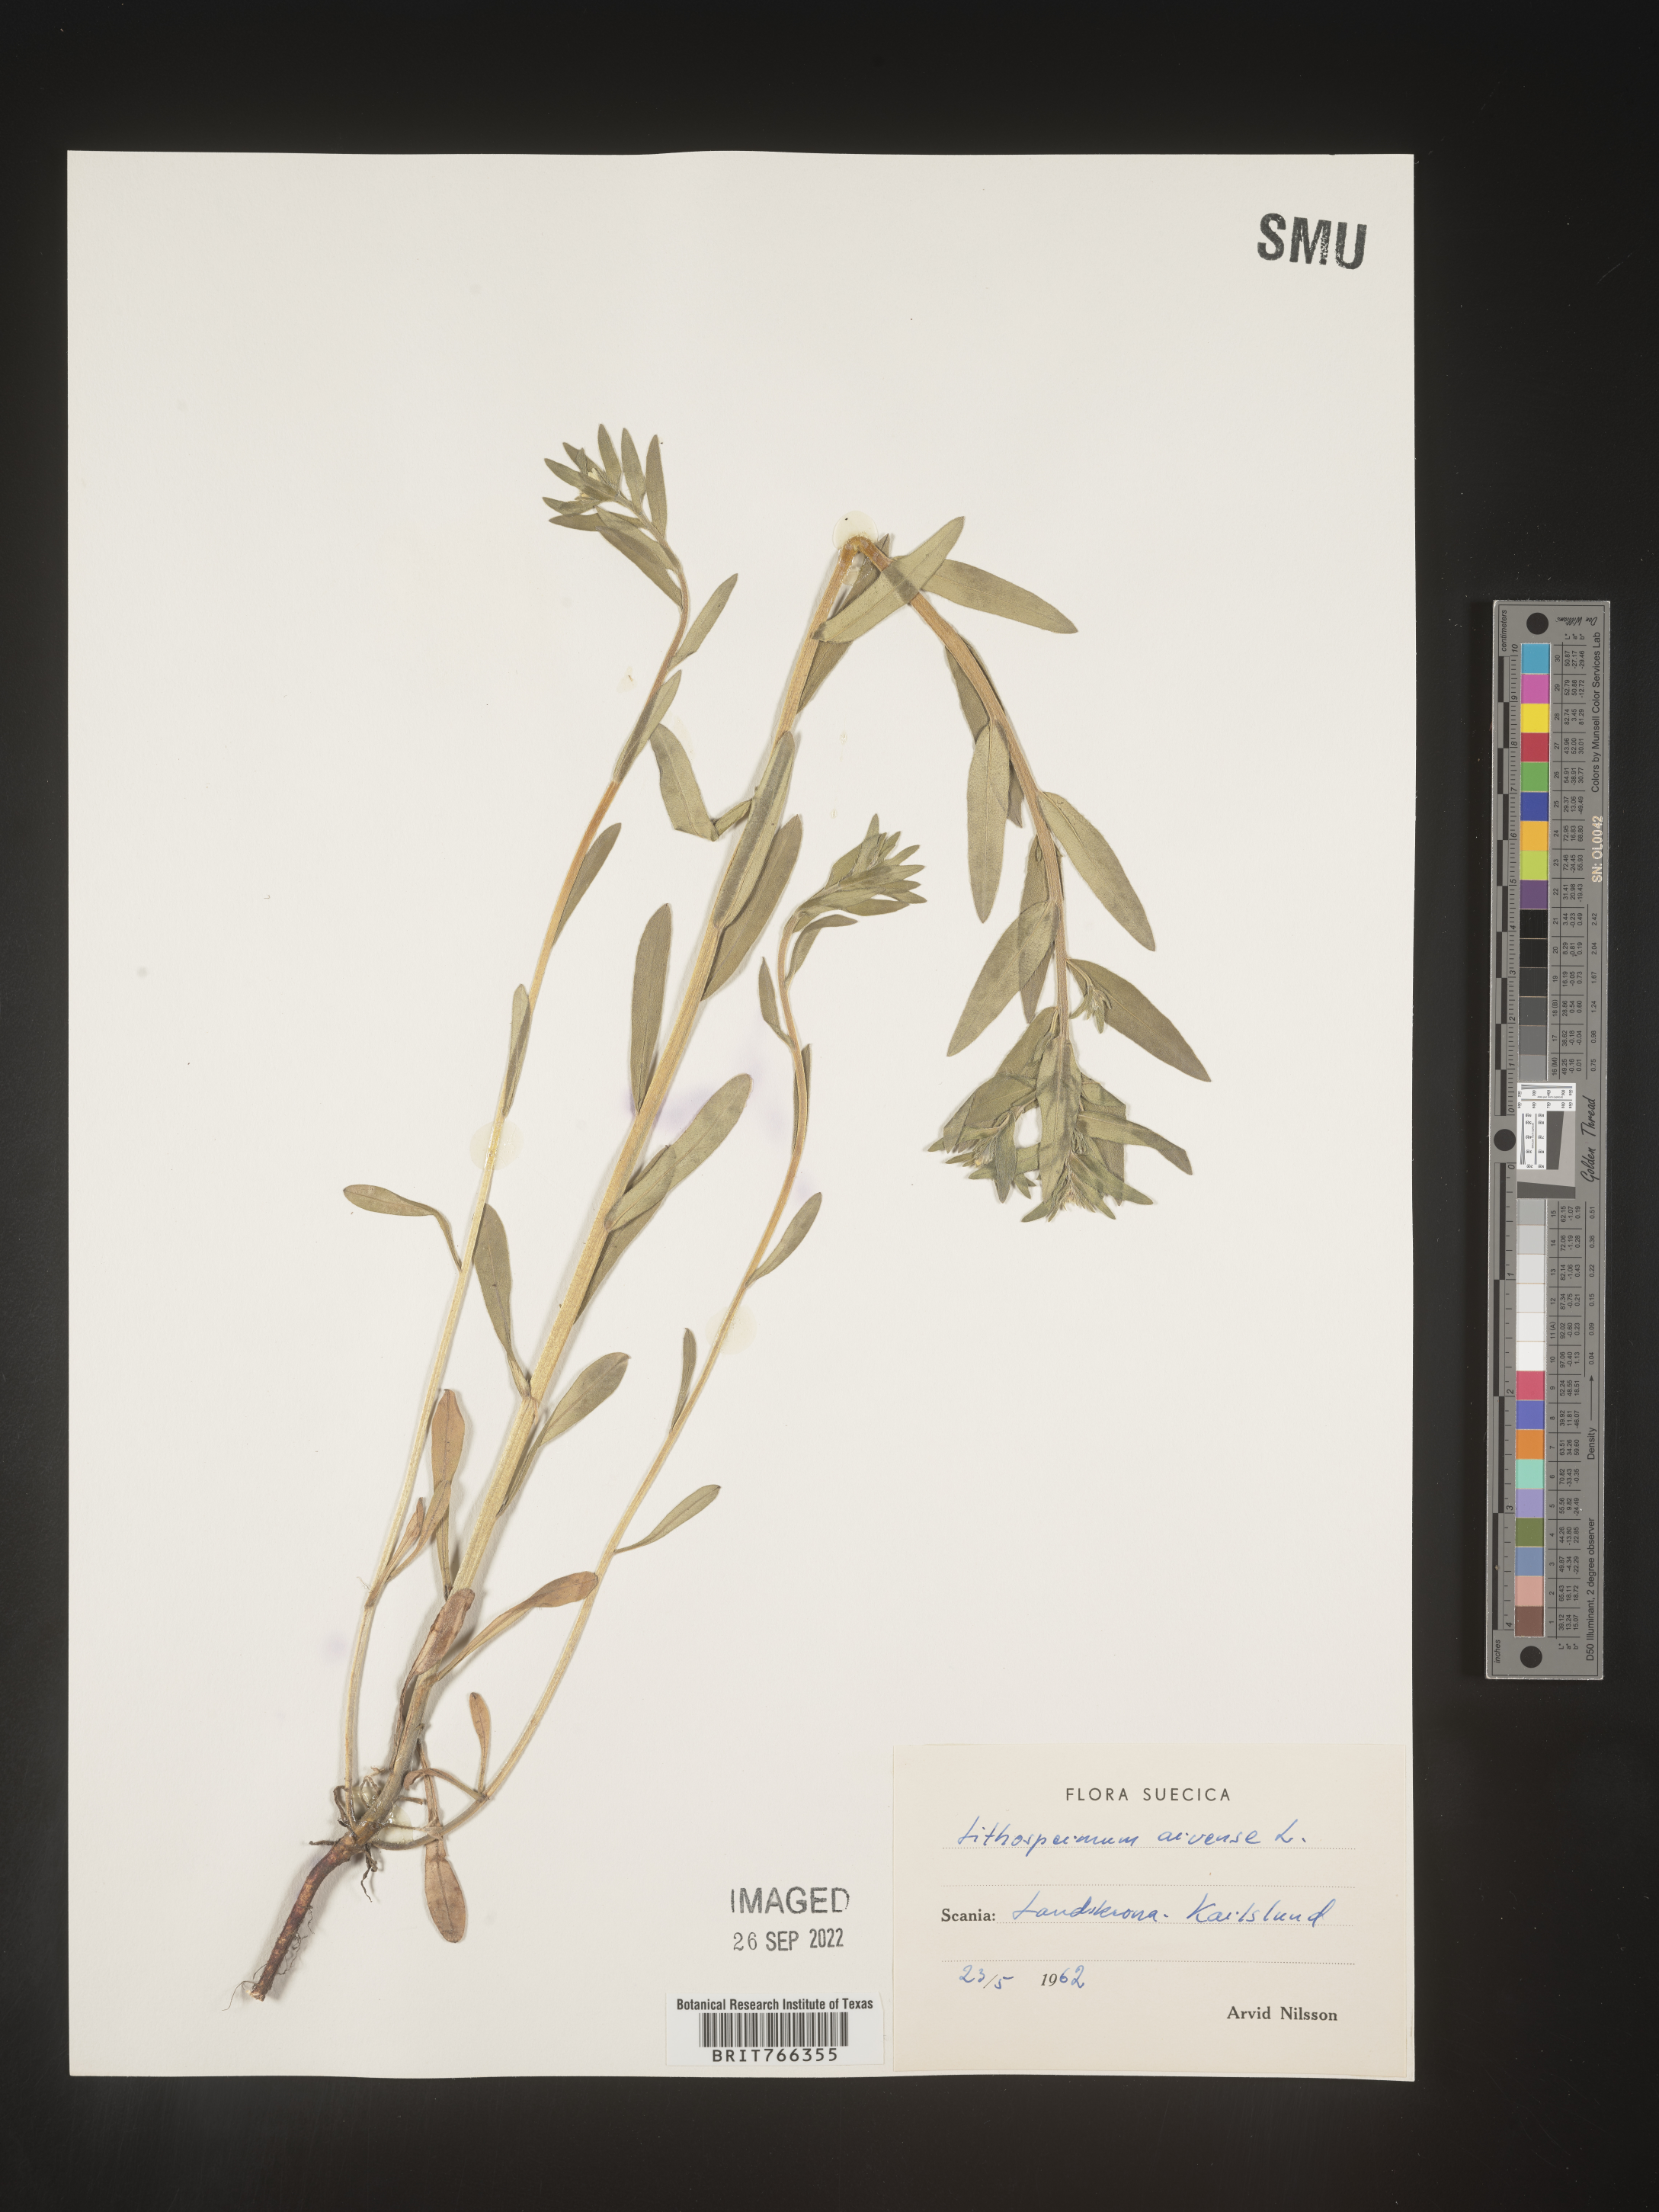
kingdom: Plantae
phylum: Tracheophyta
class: Magnoliopsida
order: Boraginales
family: Boraginaceae
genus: Buglossoides
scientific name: Buglossoides
